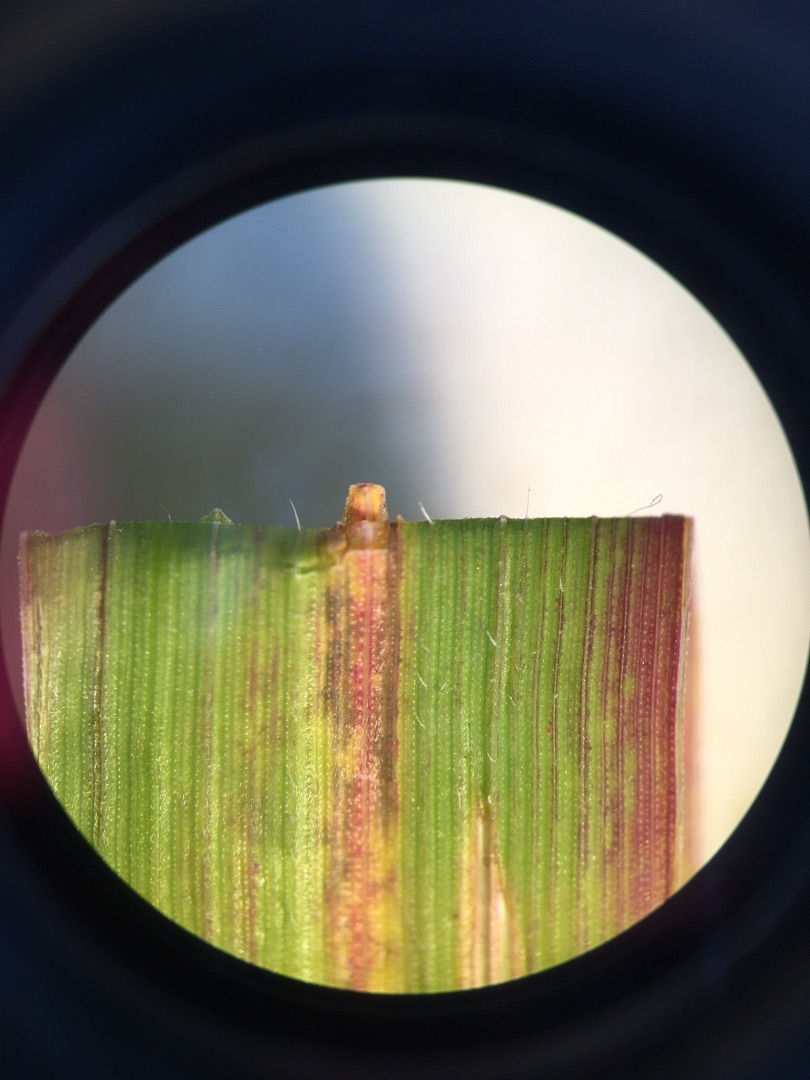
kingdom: Plantae
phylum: Tracheophyta
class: Liliopsida
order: Poales
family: Poaceae
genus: Elymus
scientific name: Elymus repens
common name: Almindelig kvik
